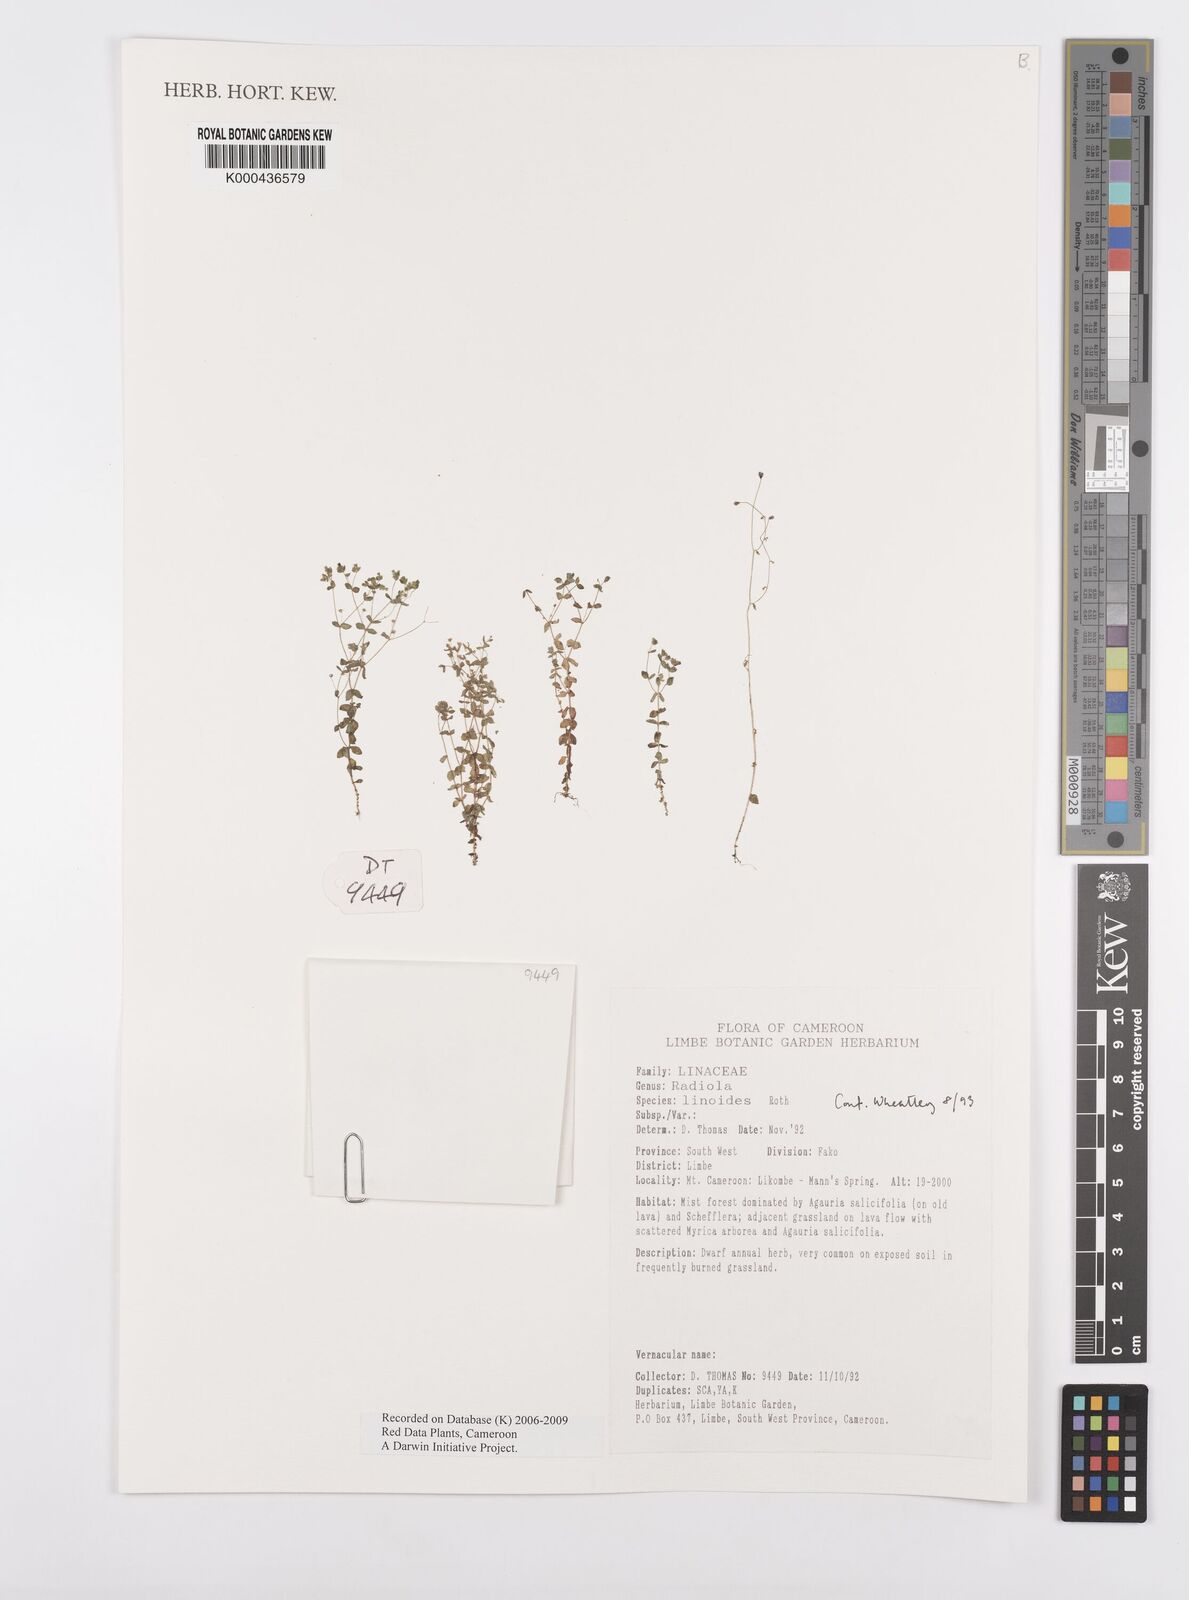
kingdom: Plantae
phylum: Tracheophyta
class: Magnoliopsida
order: Malpighiales
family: Linaceae
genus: Radiola
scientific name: Radiola linoides
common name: Allseed
